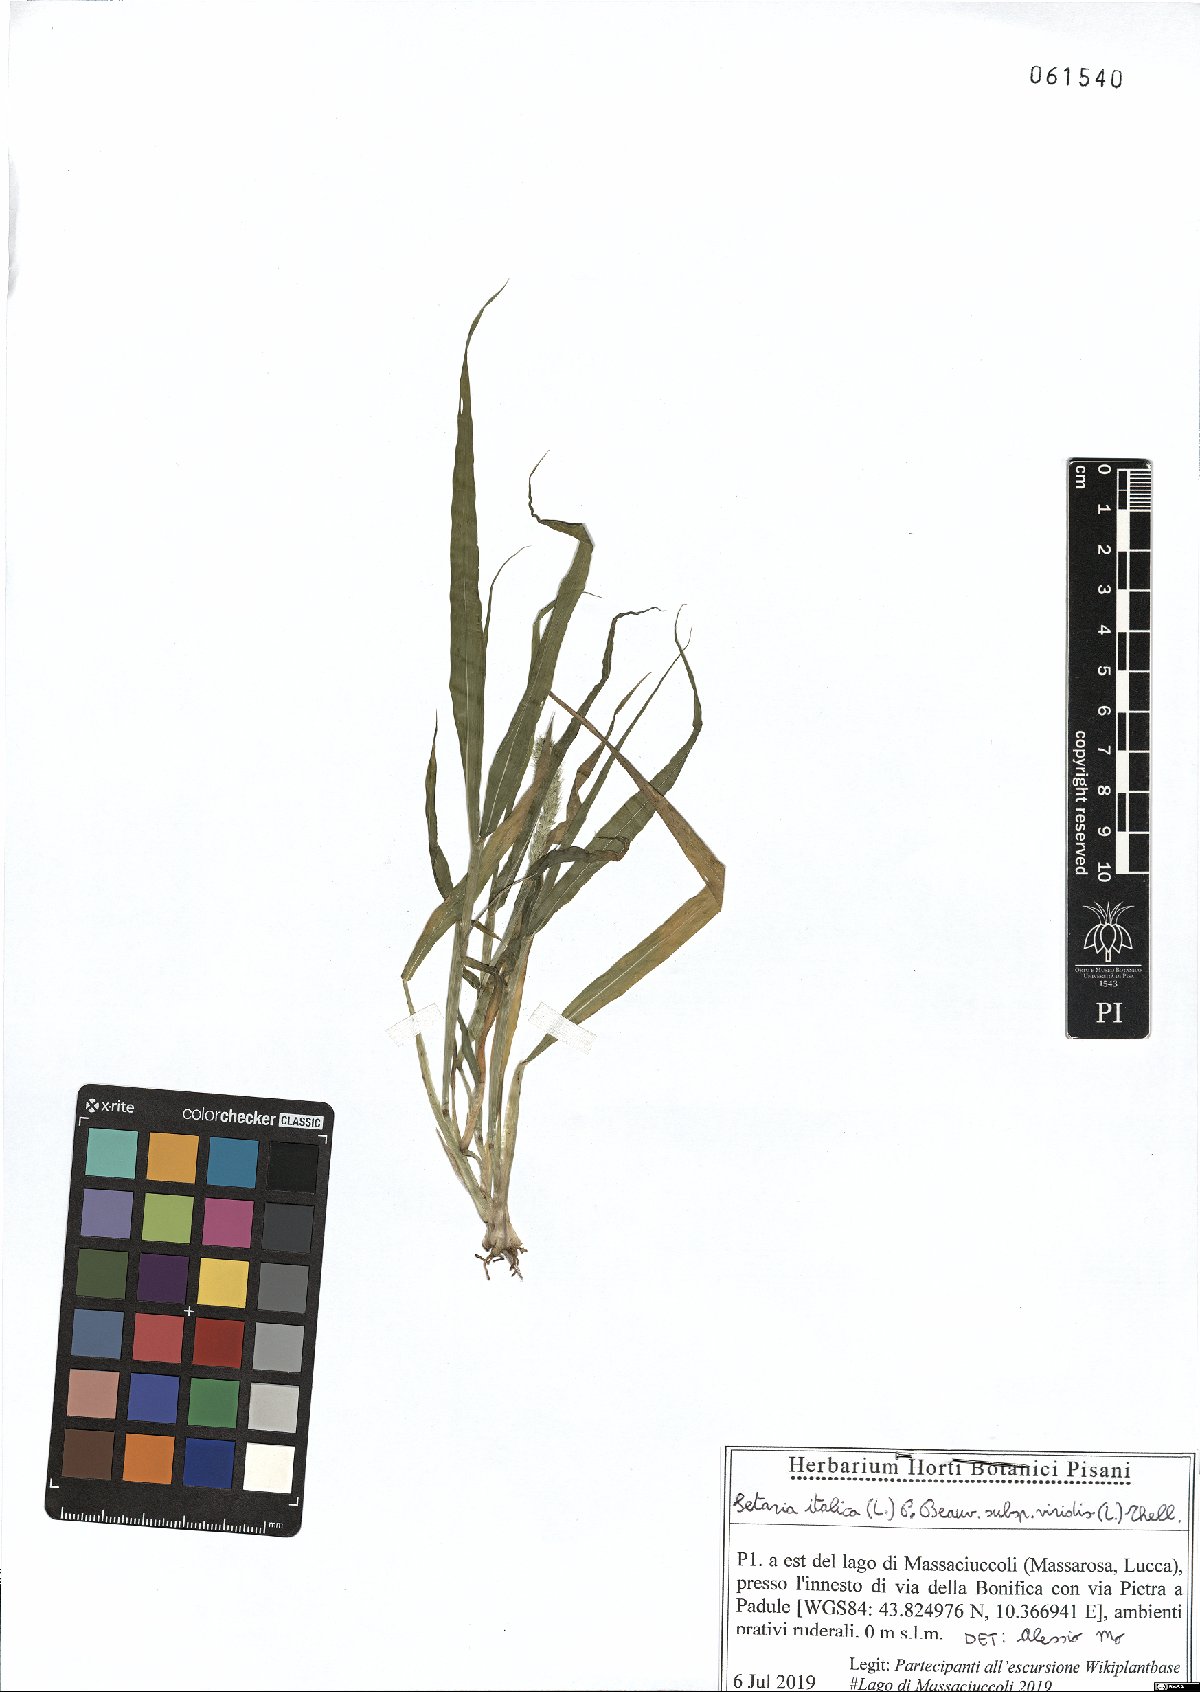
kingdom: Plantae
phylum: Tracheophyta
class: Liliopsida
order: Poales
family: Poaceae
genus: Setaria
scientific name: Setaria viridis
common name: Green bristlegrass
